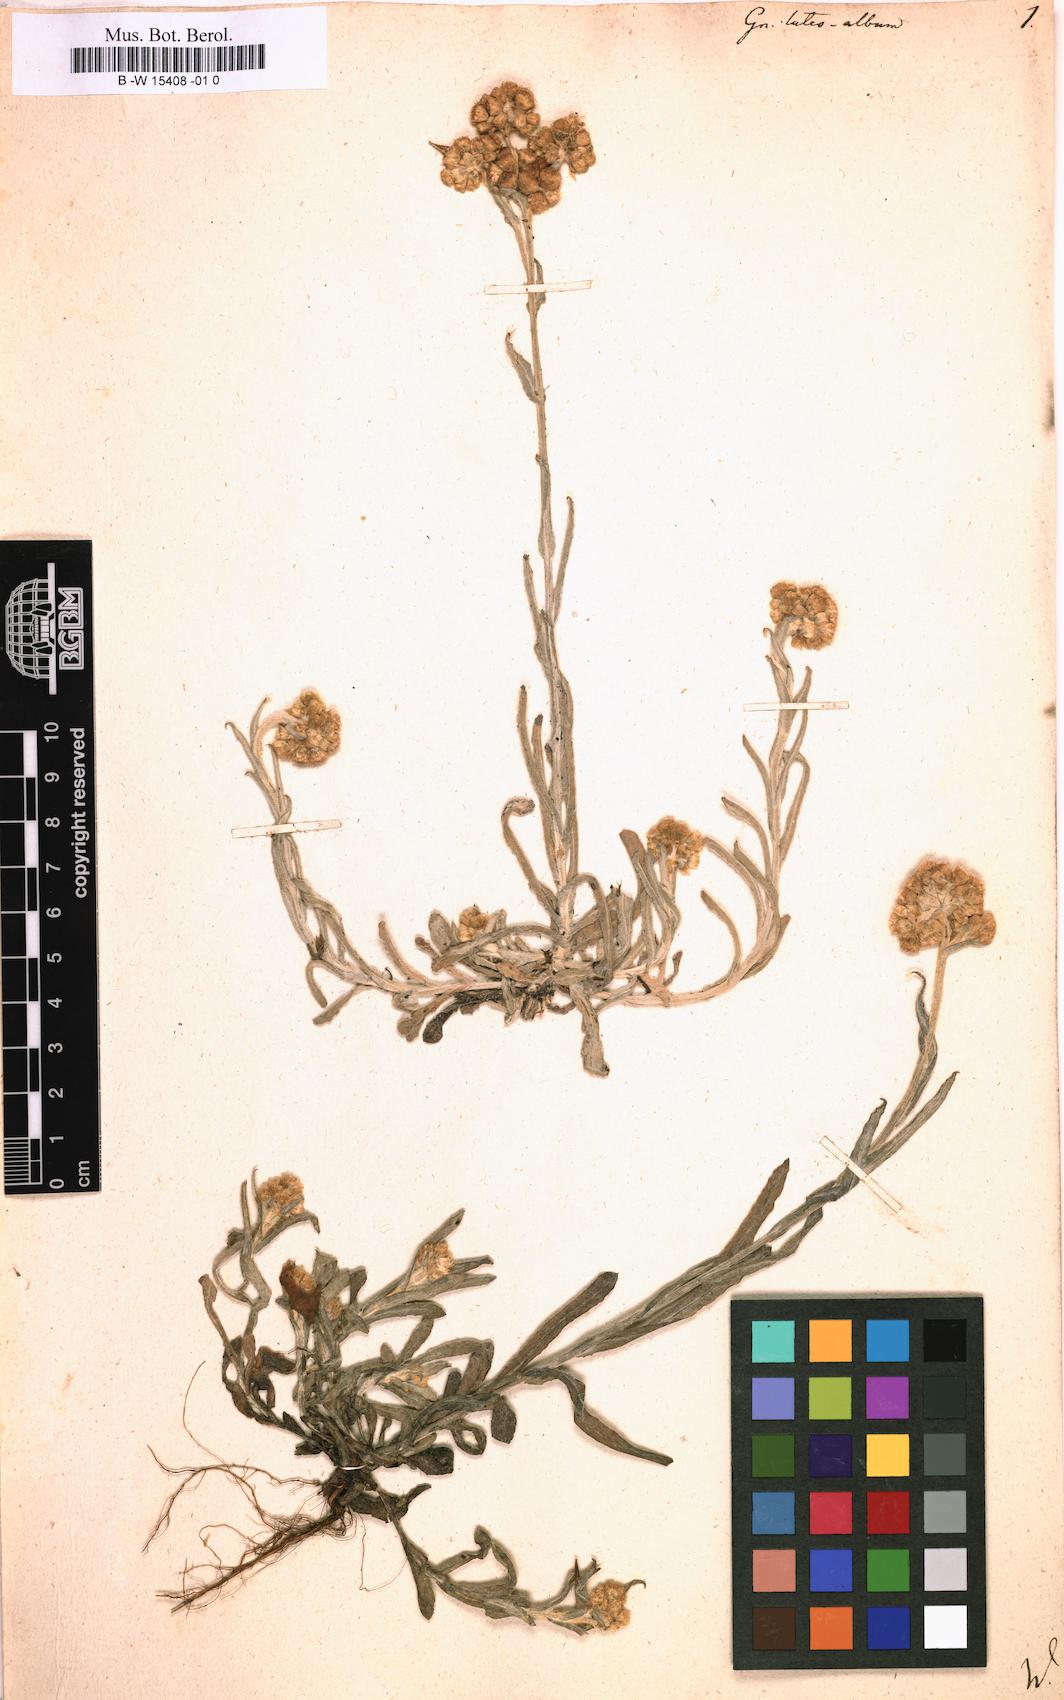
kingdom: Plantae
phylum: Tracheophyta
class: Magnoliopsida
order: Asterales
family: Asteraceae
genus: Helichrysum
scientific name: Helichrysum luteoalbum
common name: Daisy
